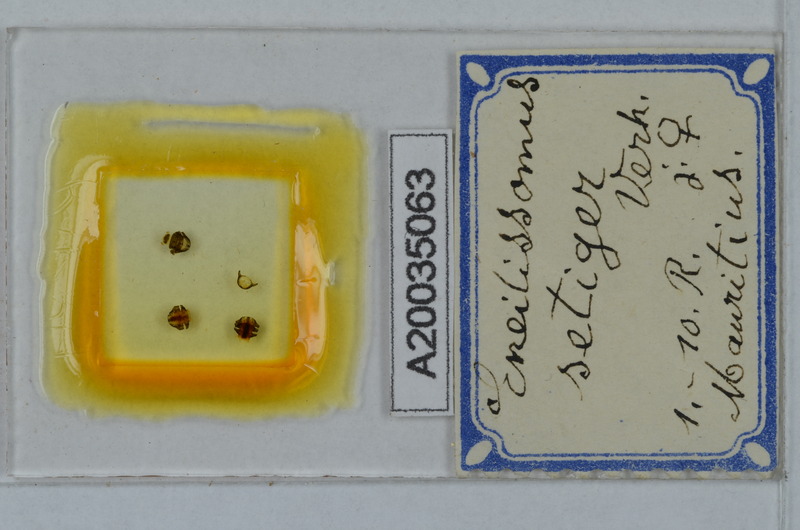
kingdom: Animalia
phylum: Arthropoda
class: Diplopoda
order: Polydesmida
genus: Eneillissomus
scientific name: Eneillissomus setiger
